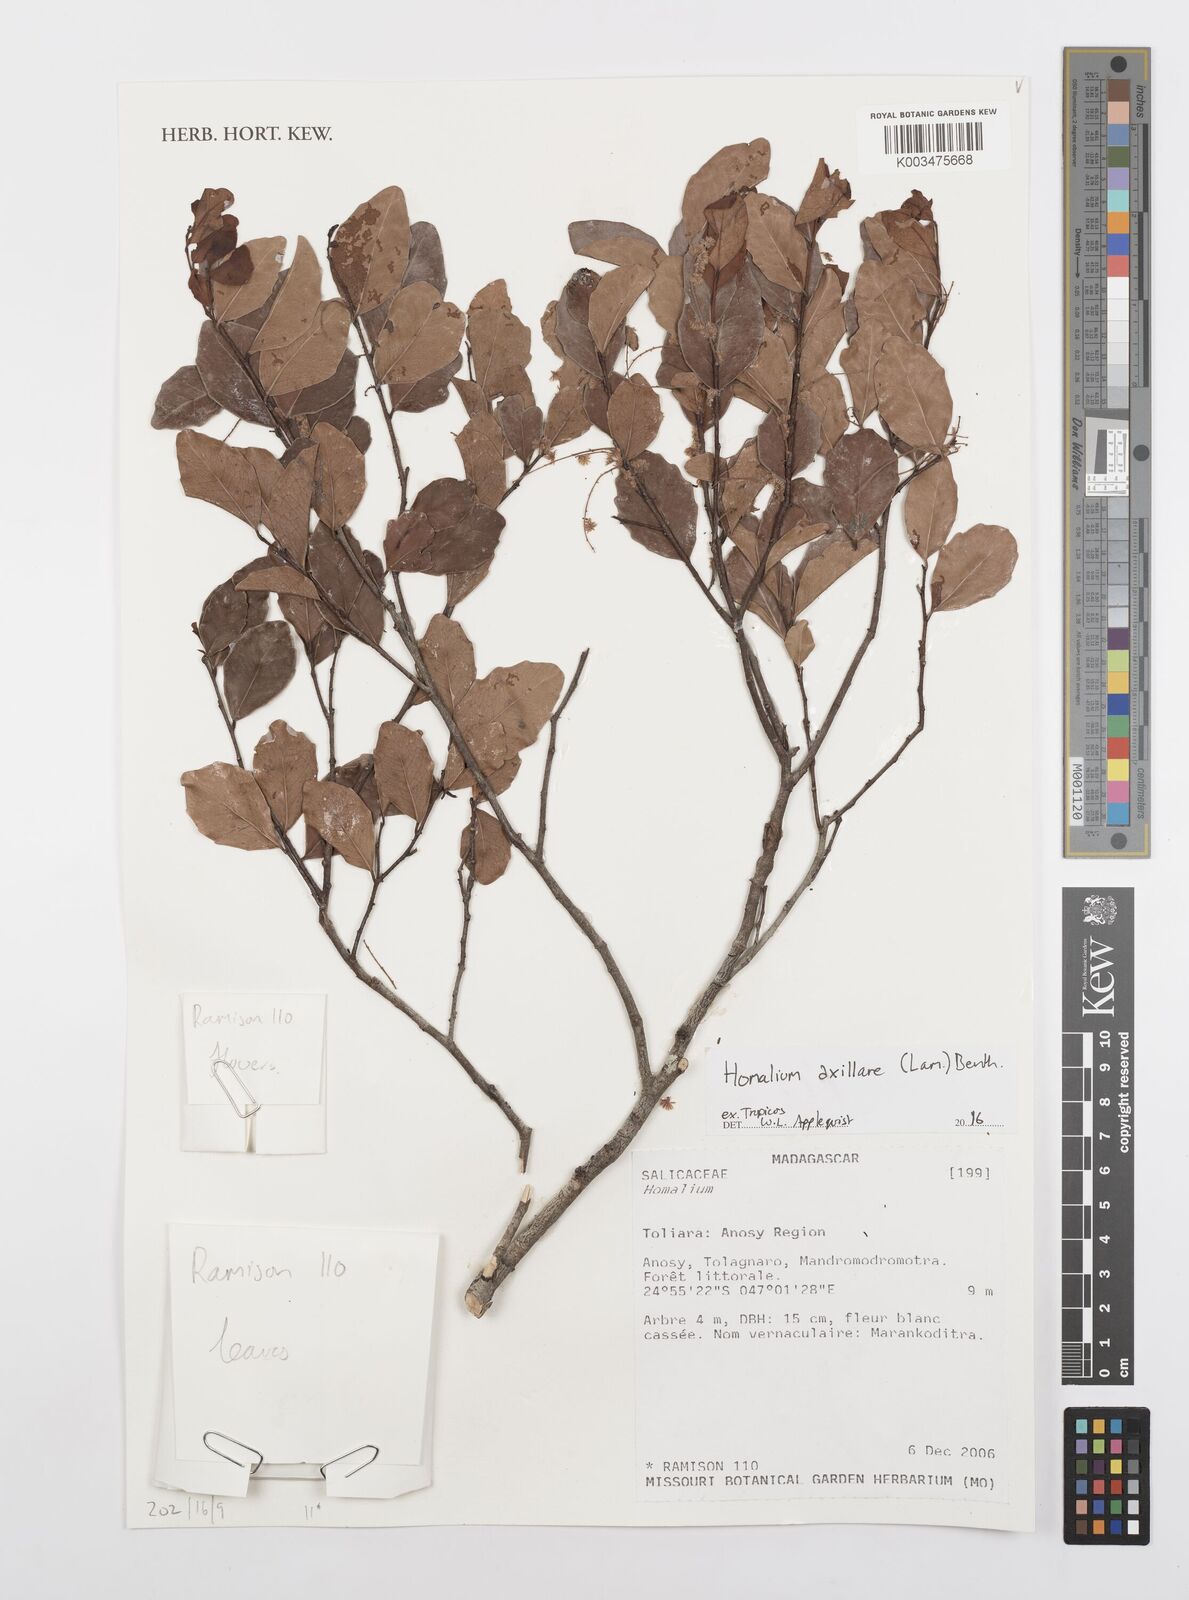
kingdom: Plantae
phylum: Tracheophyta
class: Magnoliopsida
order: Malpighiales
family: Salicaceae
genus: Homalium
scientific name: Homalium axillare
